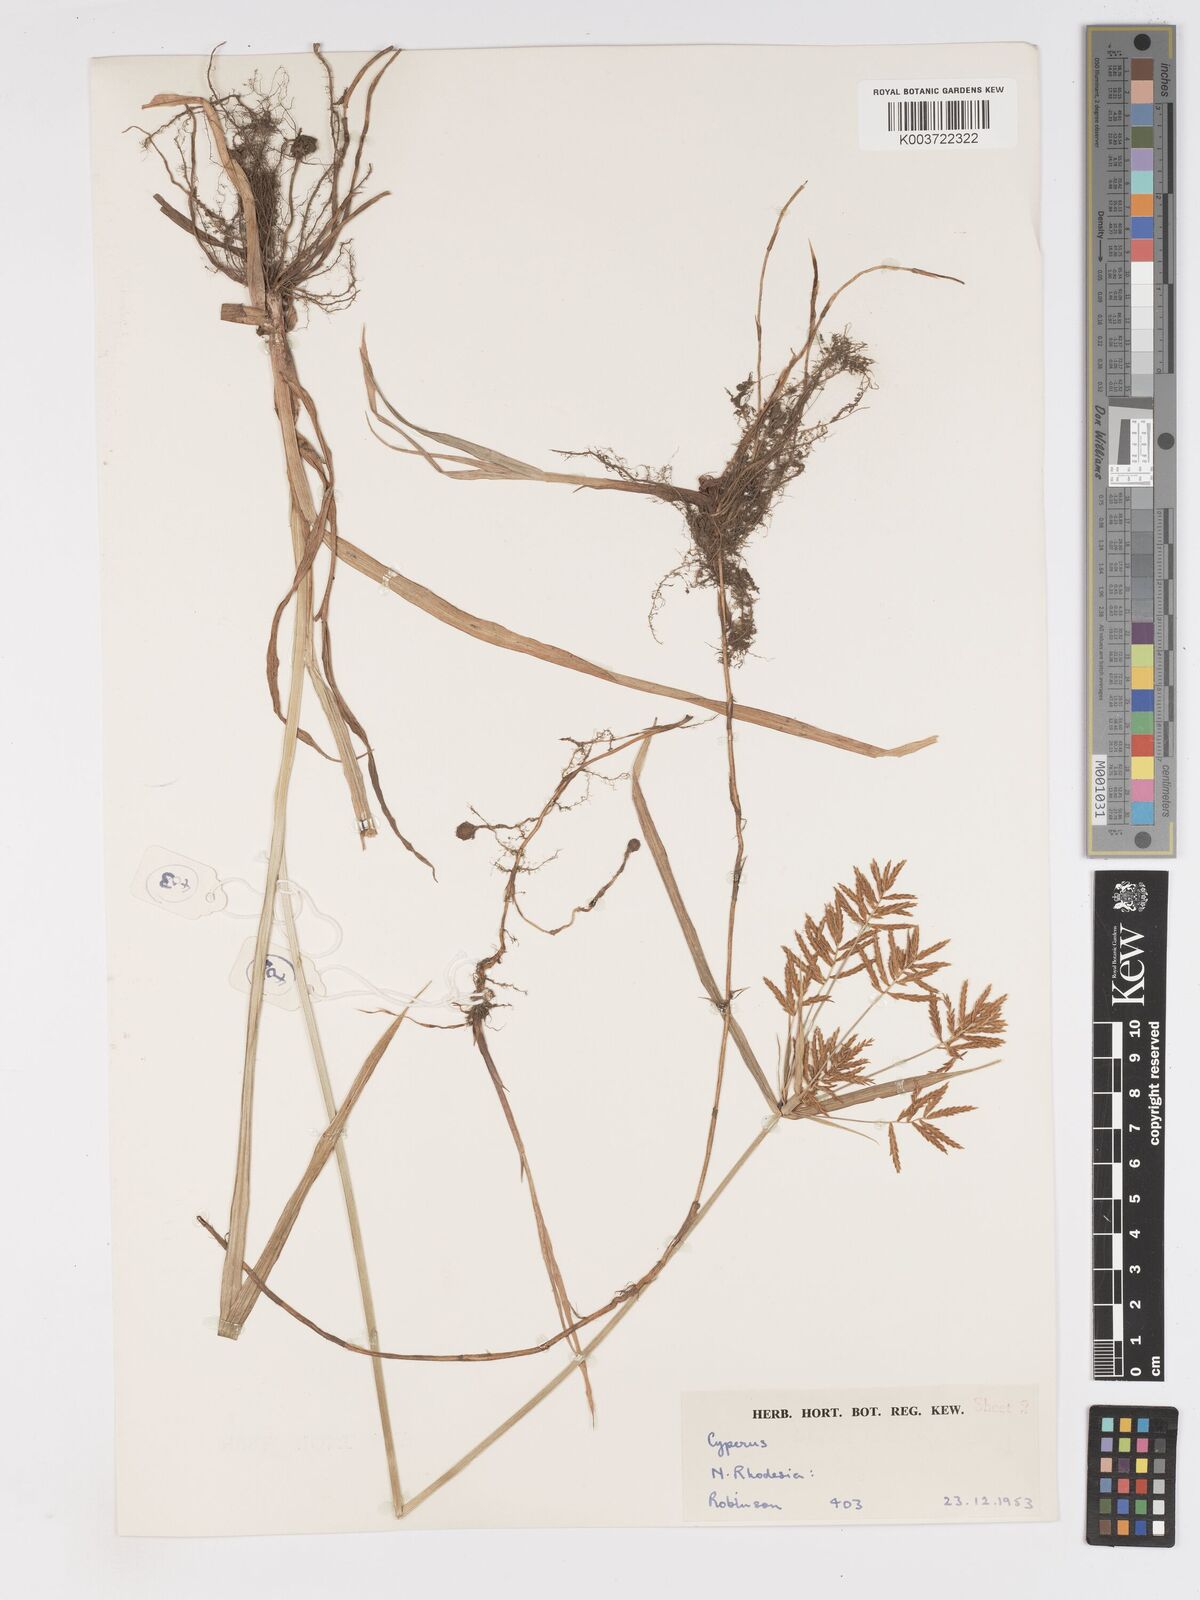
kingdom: Plantae
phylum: Tracheophyta
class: Liliopsida
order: Poales
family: Cyperaceae
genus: Cyperus
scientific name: Cyperus esculentus
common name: Yellow nutsedge
